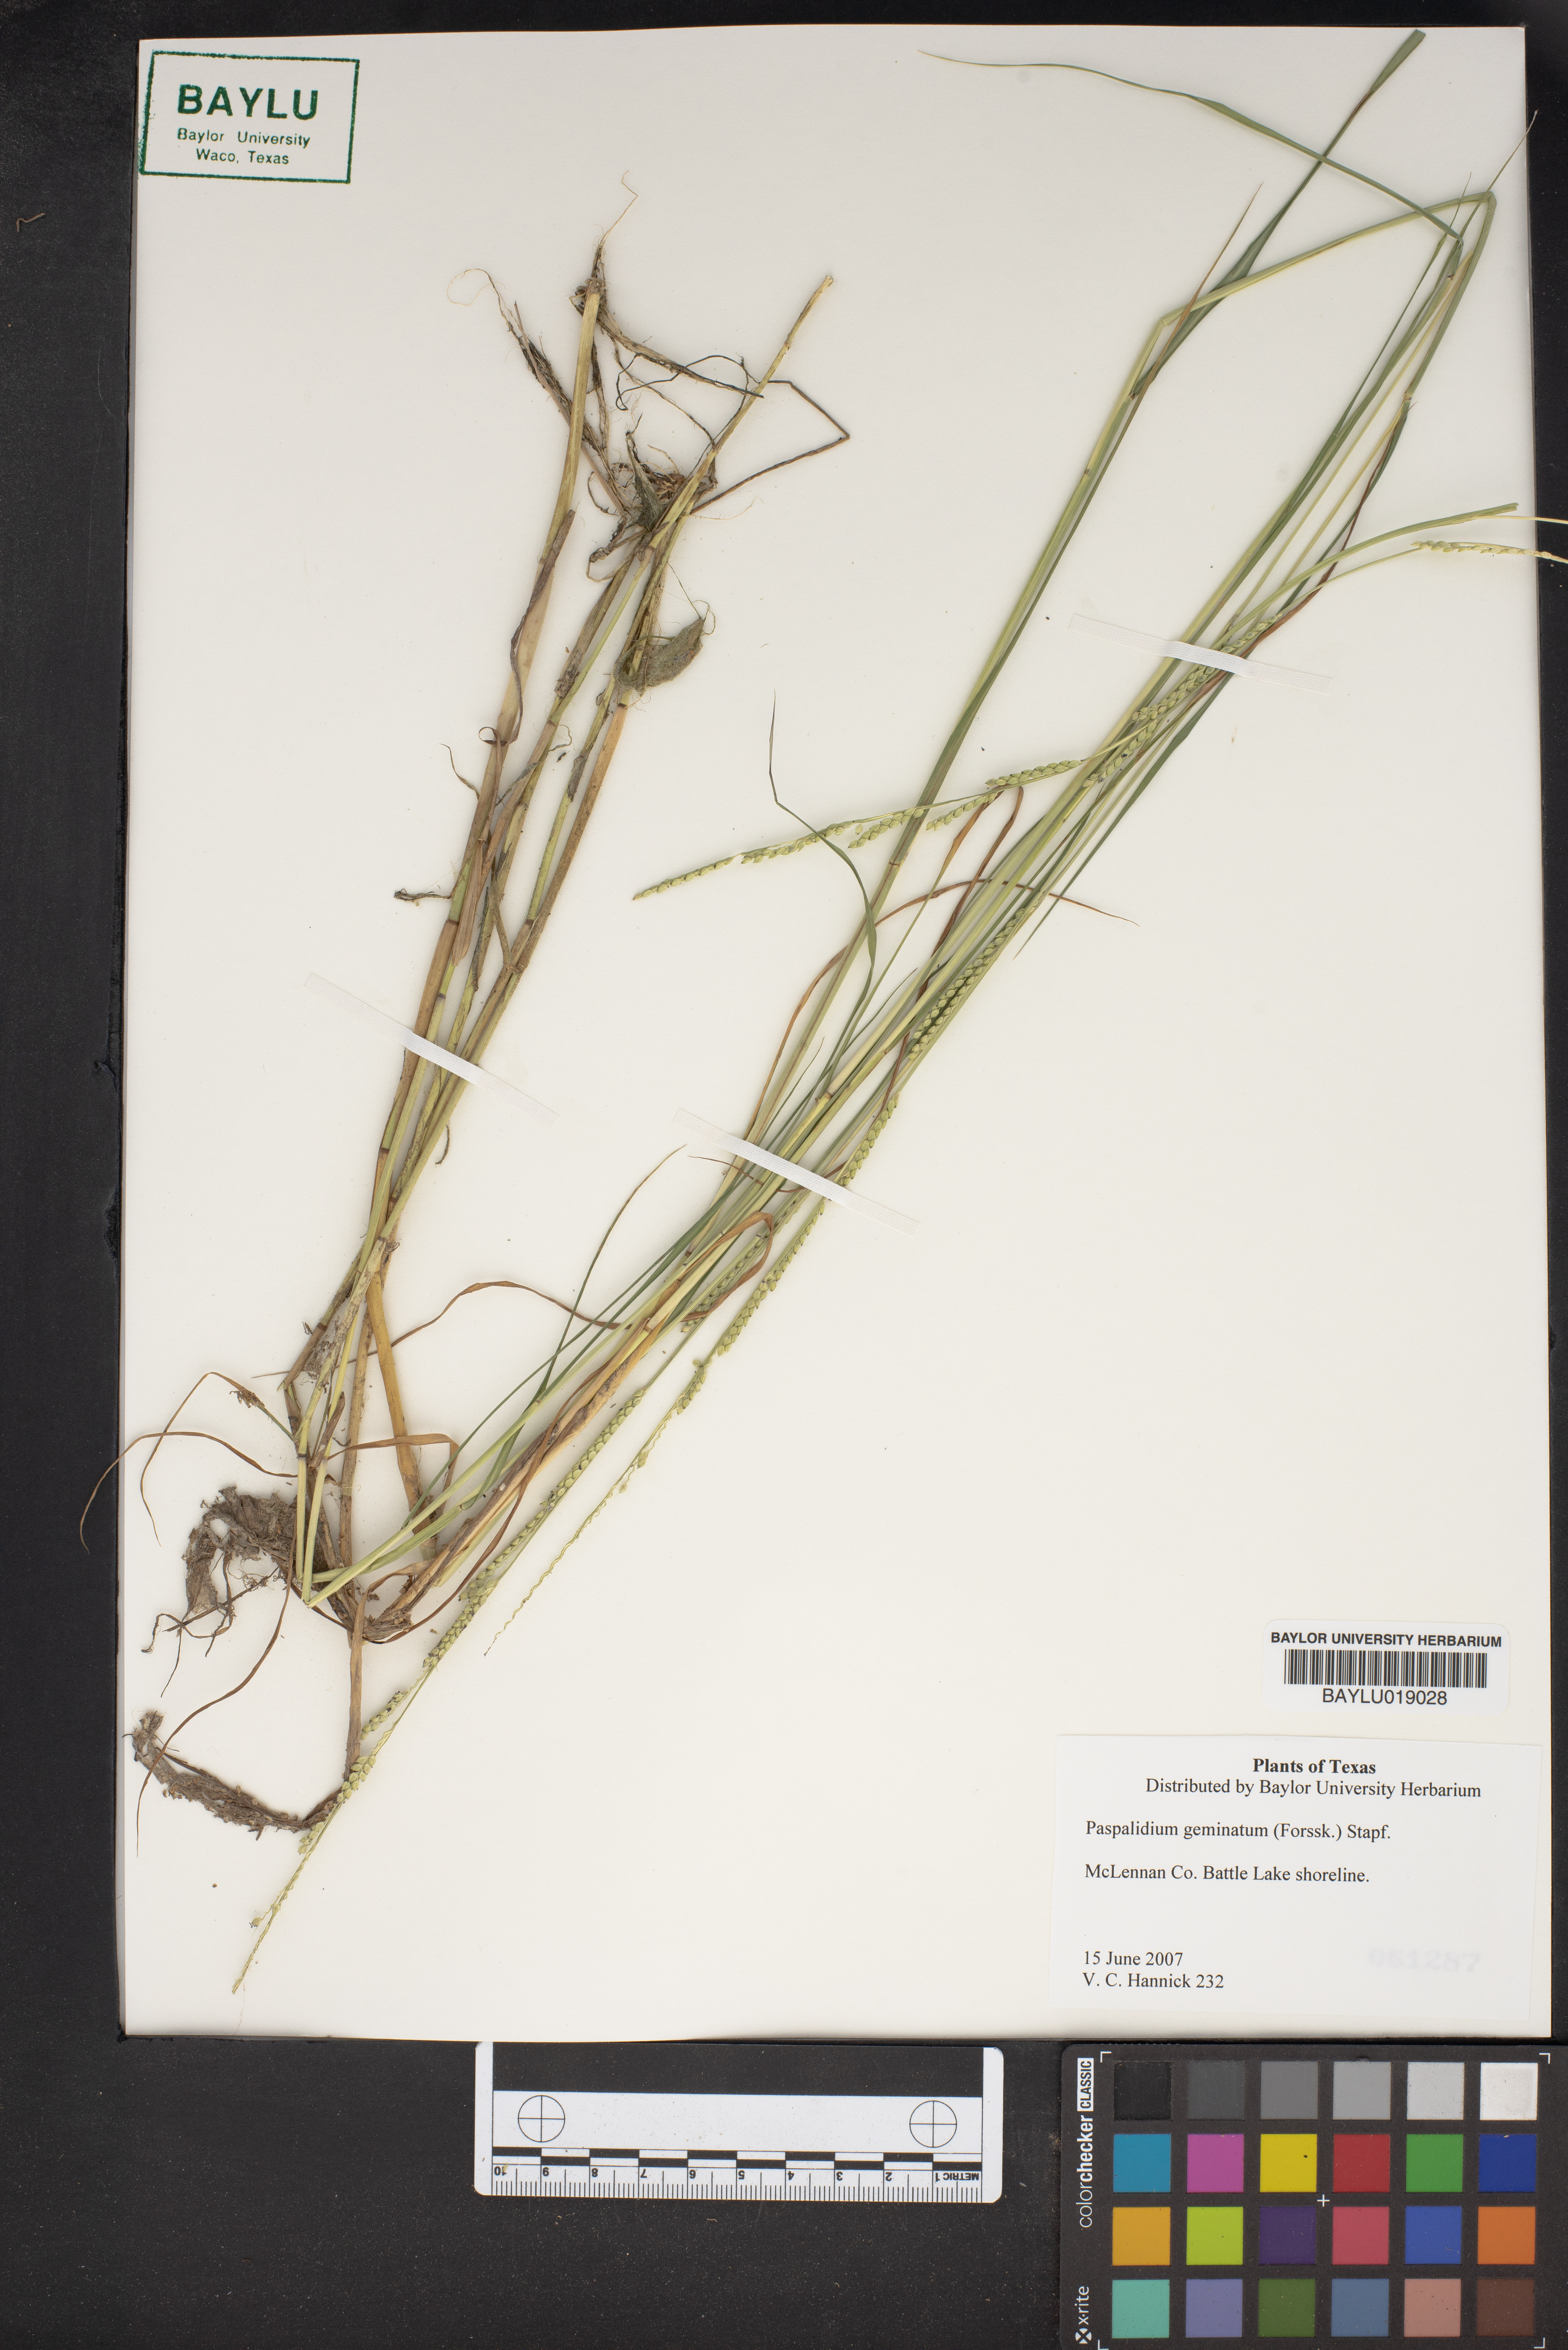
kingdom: Plantae
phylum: Tracheophyta
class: Liliopsida
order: Poales
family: Poaceae
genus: Setaria
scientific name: Setaria geminata
